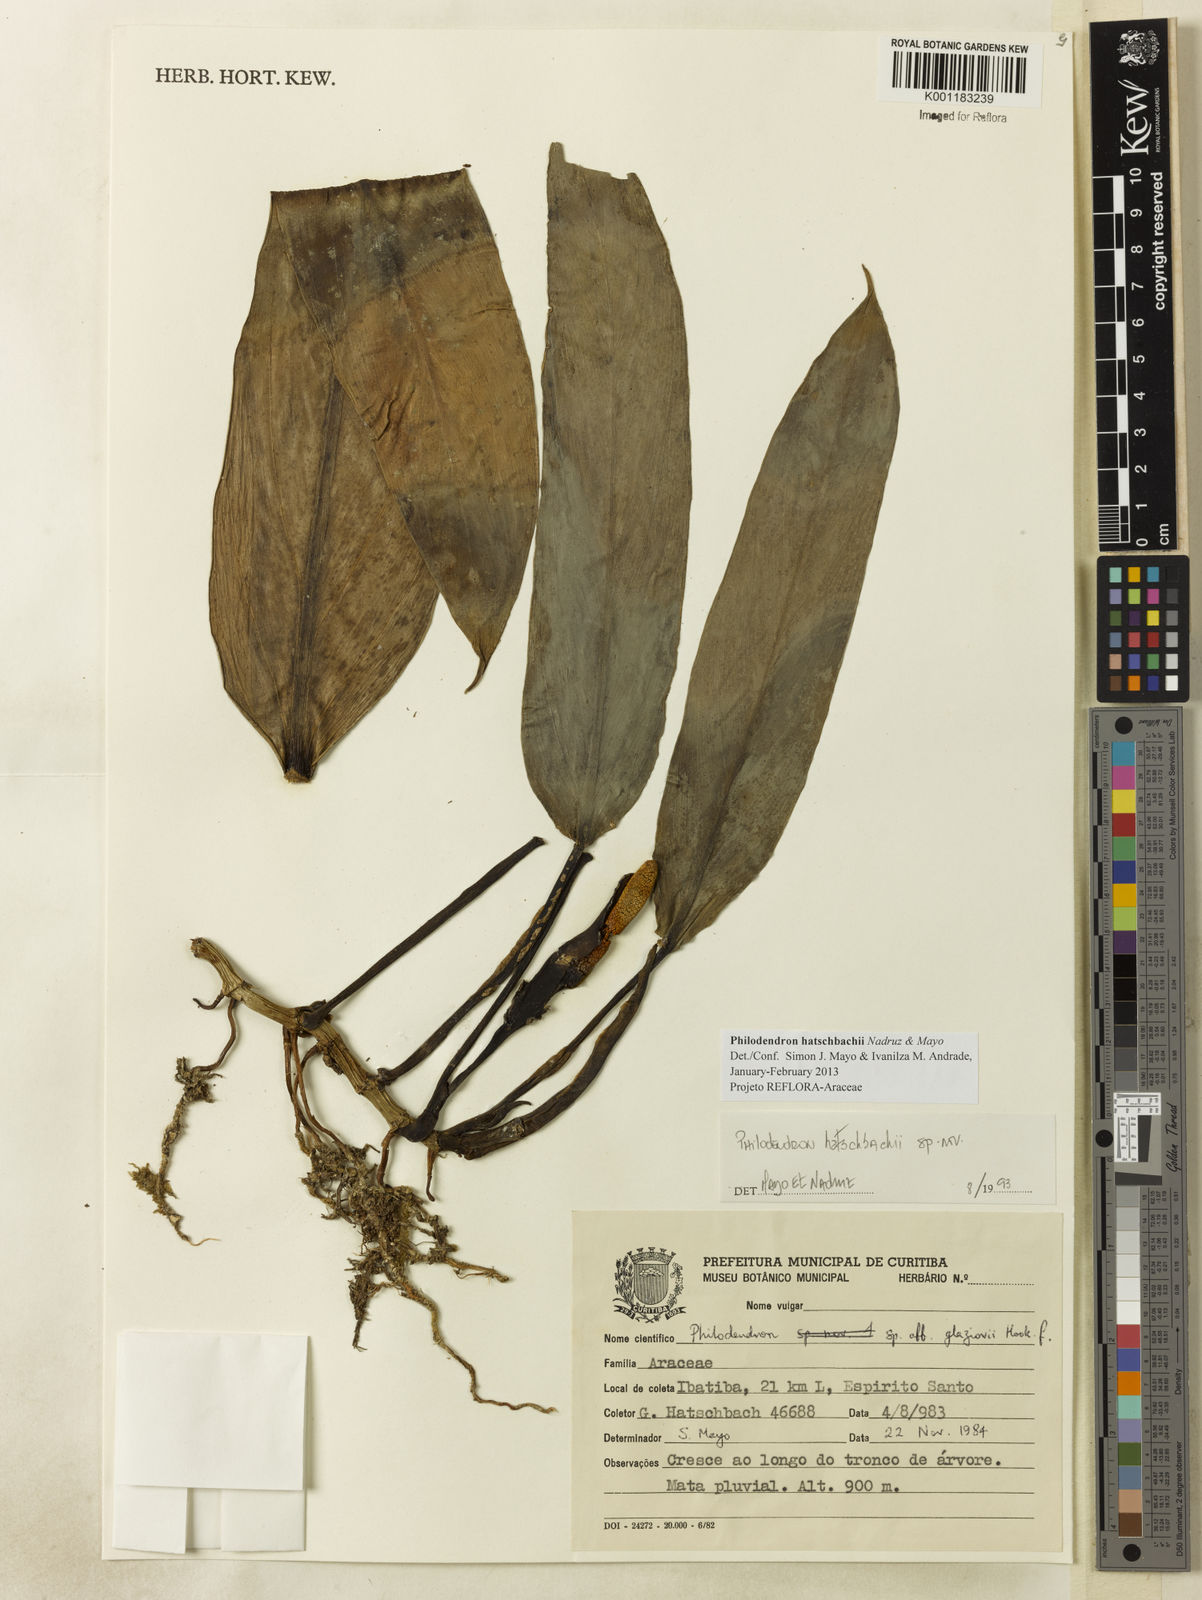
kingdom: Plantae
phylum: Tracheophyta
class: Liliopsida
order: Alismatales
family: Araceae
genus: Philodendron
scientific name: Philodendron hatschbachii
